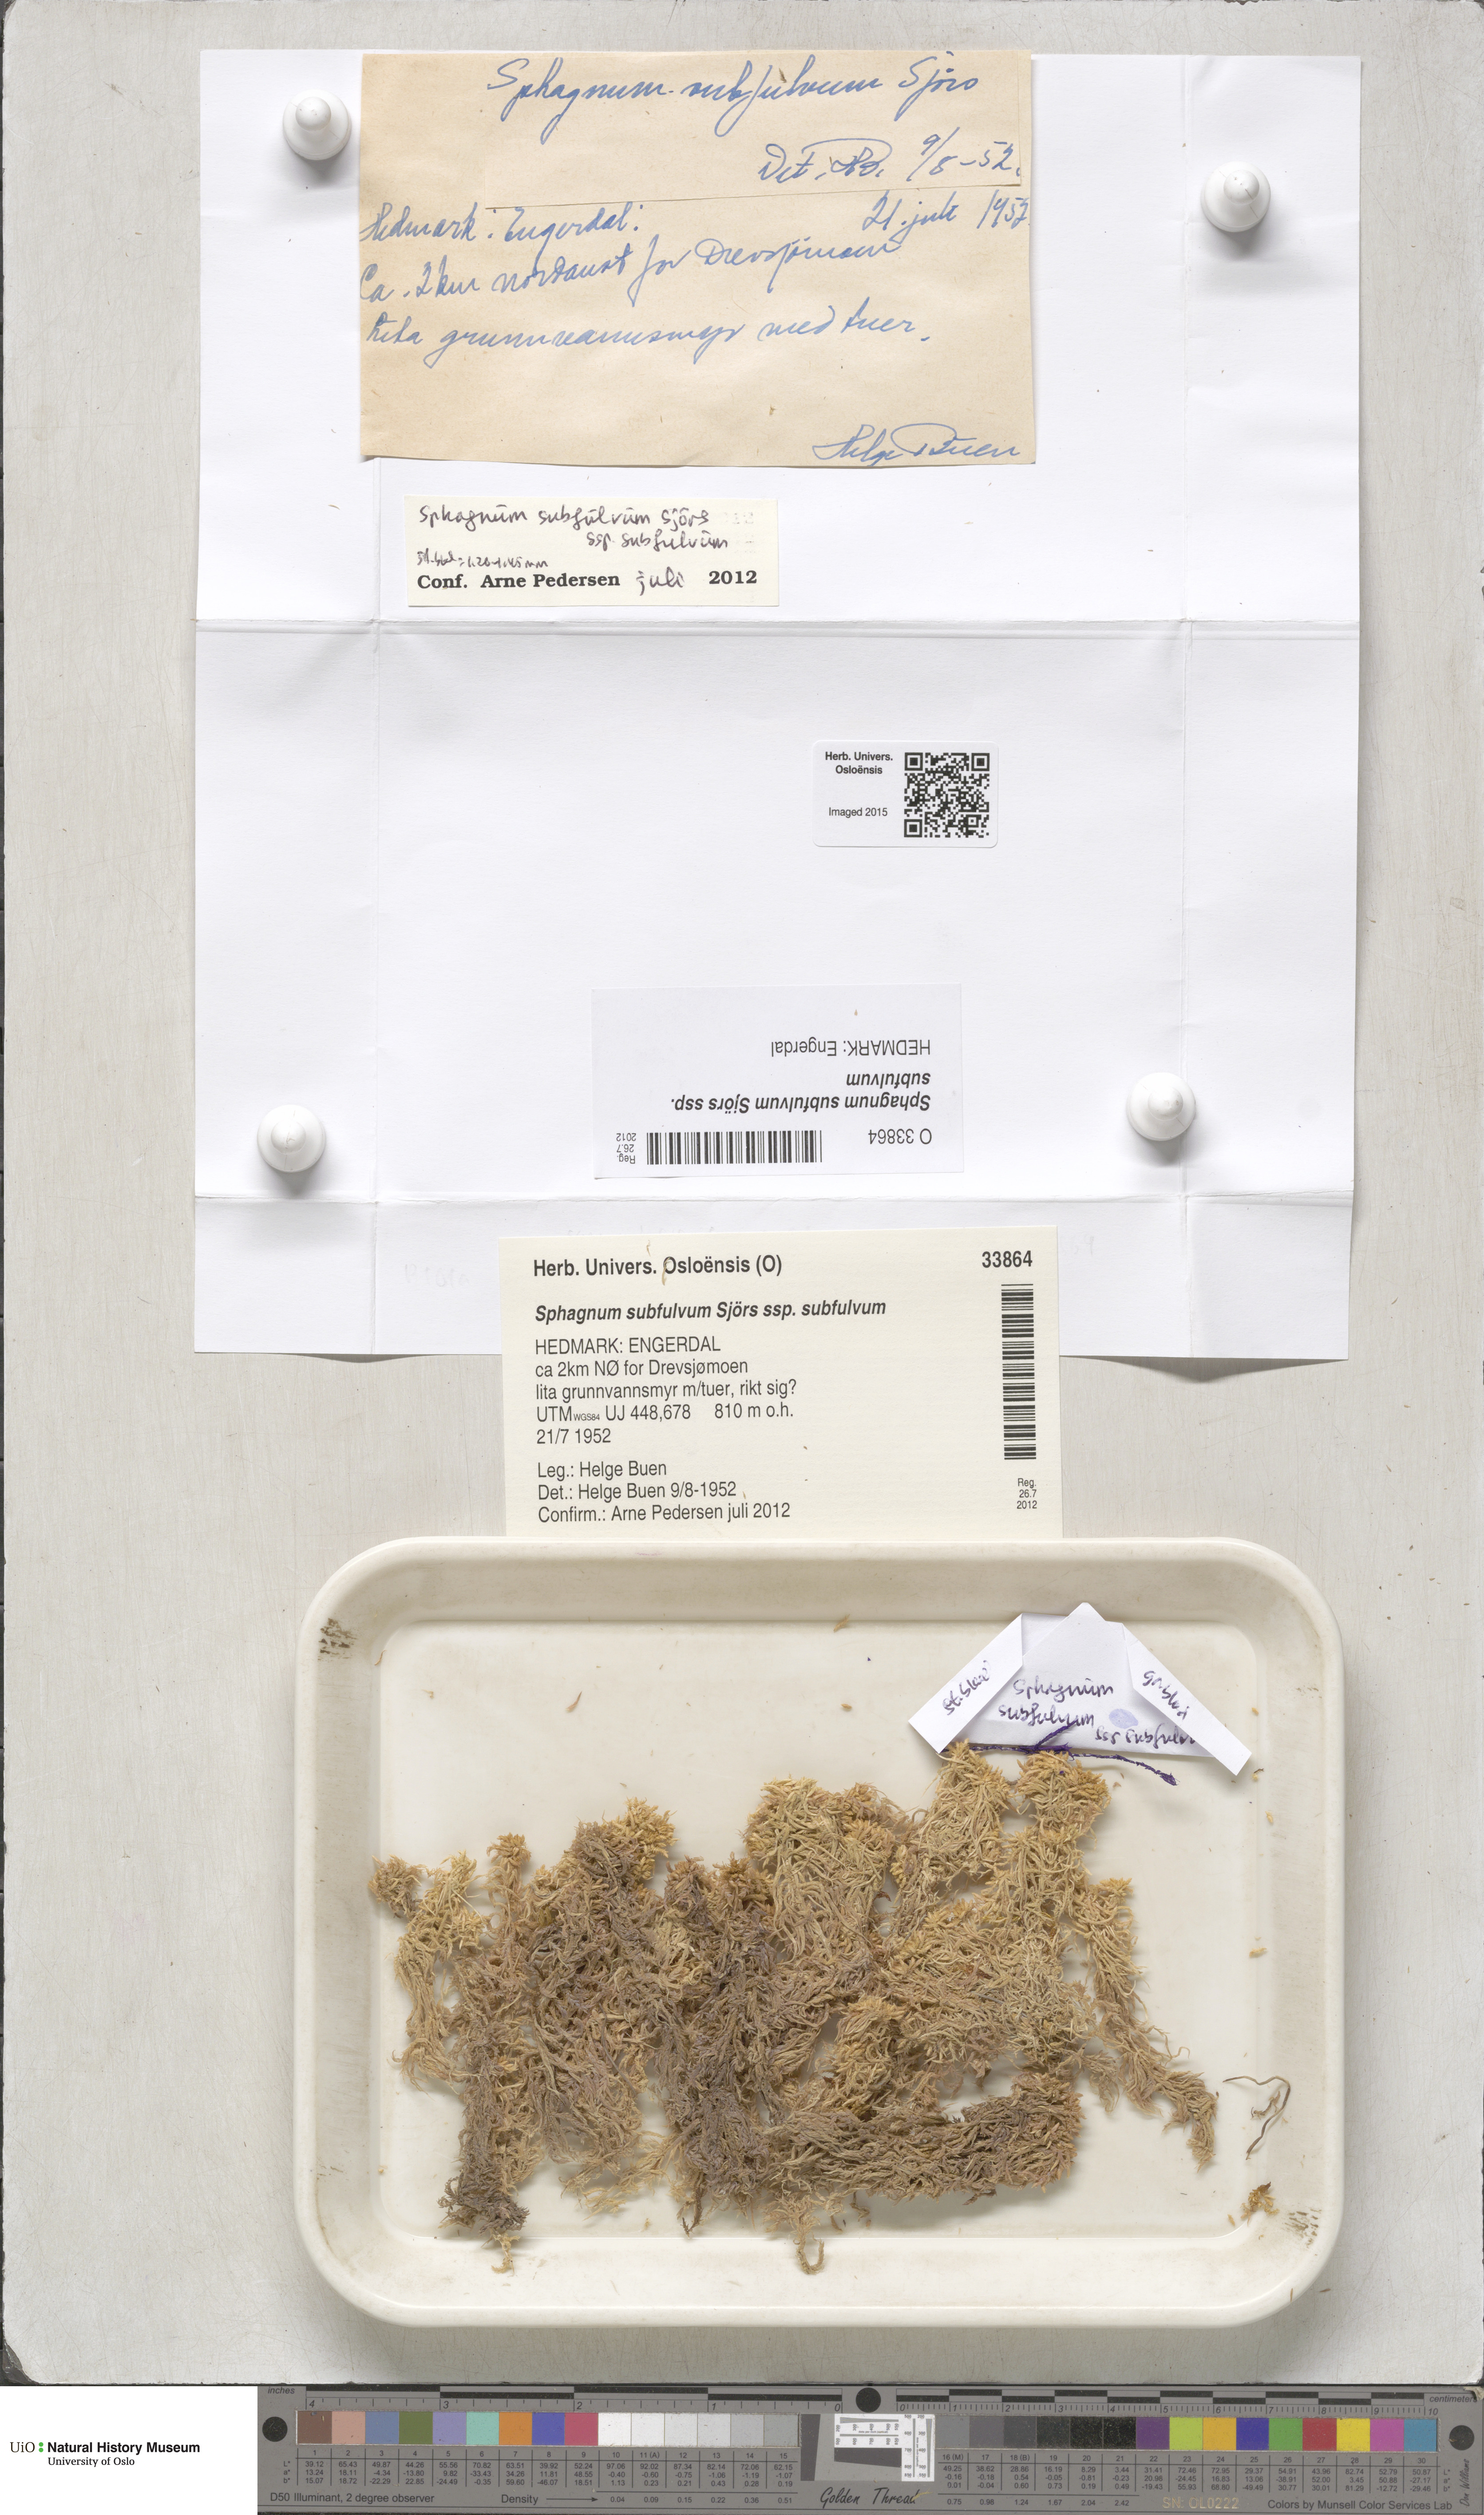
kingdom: Plantae
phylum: Bryophyta
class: Sphagnopsida
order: Sphagnales
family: Sphagnaceae
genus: Sphagnum
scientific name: Sphagnum subfulvum
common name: Fulvous peat moss
